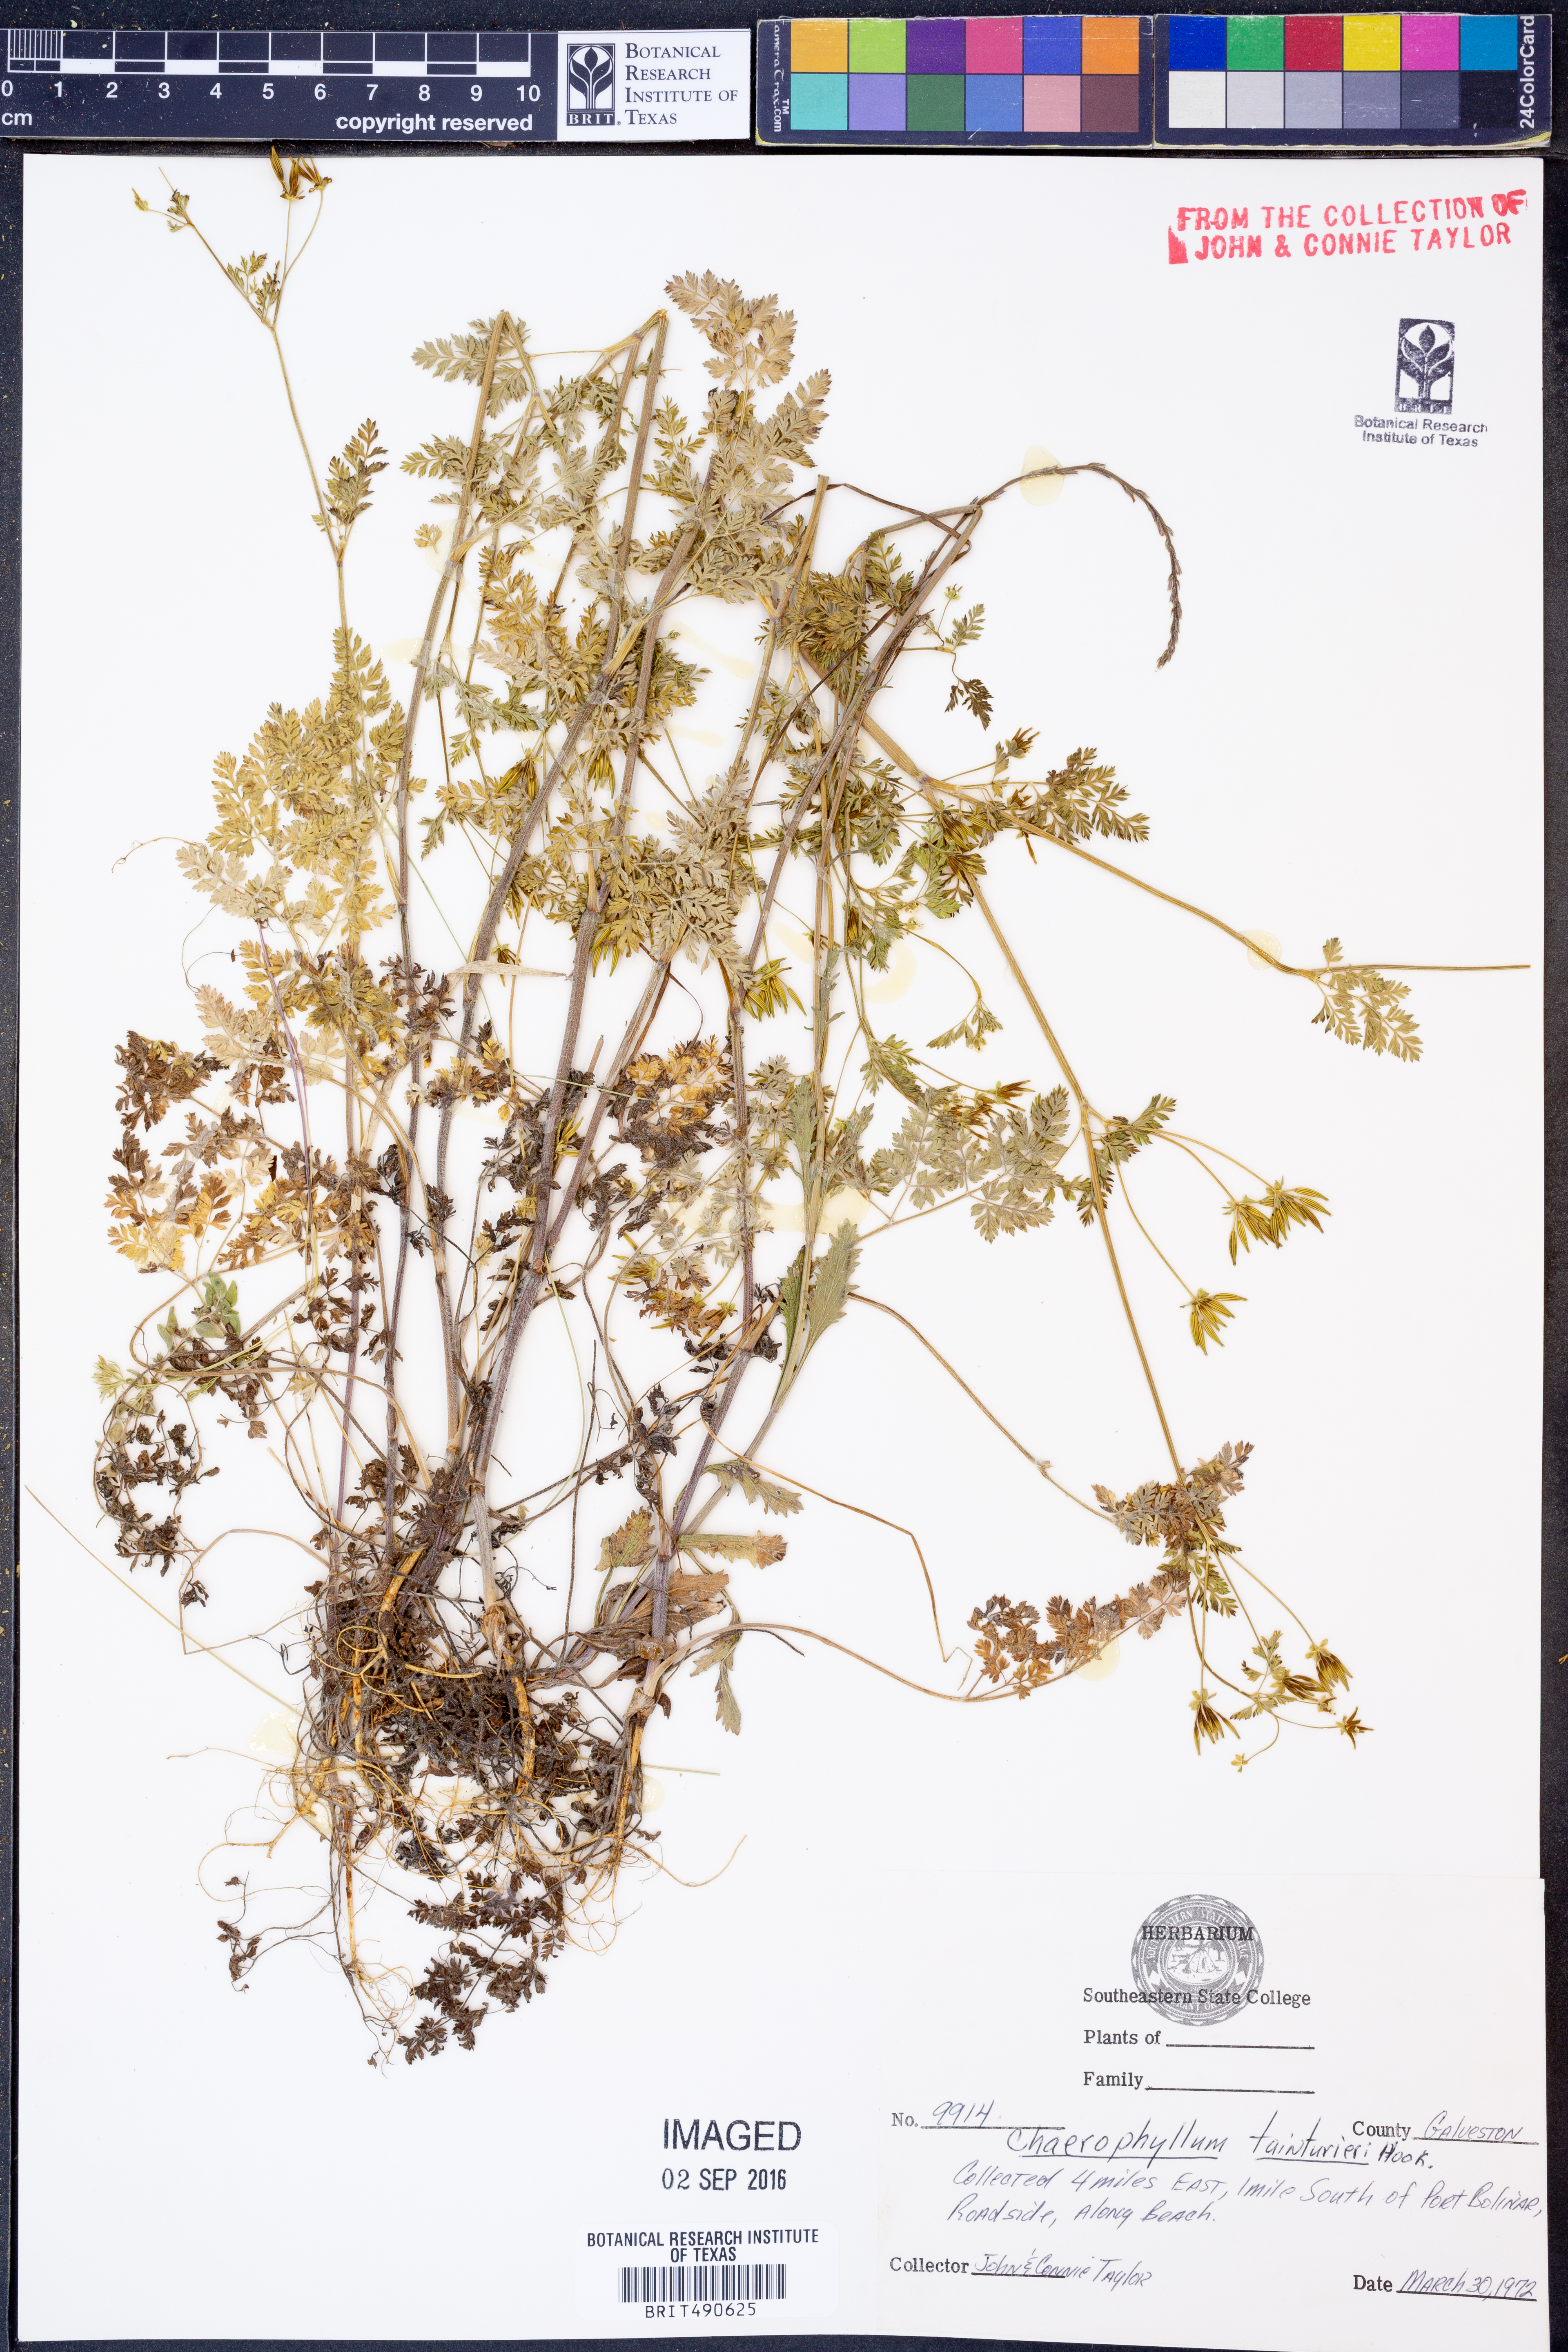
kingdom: Plantae
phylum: Tracheophyta
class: Magnoliopsida
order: Apiales
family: Apiaceae
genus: Chaerophyllum
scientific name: Chaerophyllum tainturieri
